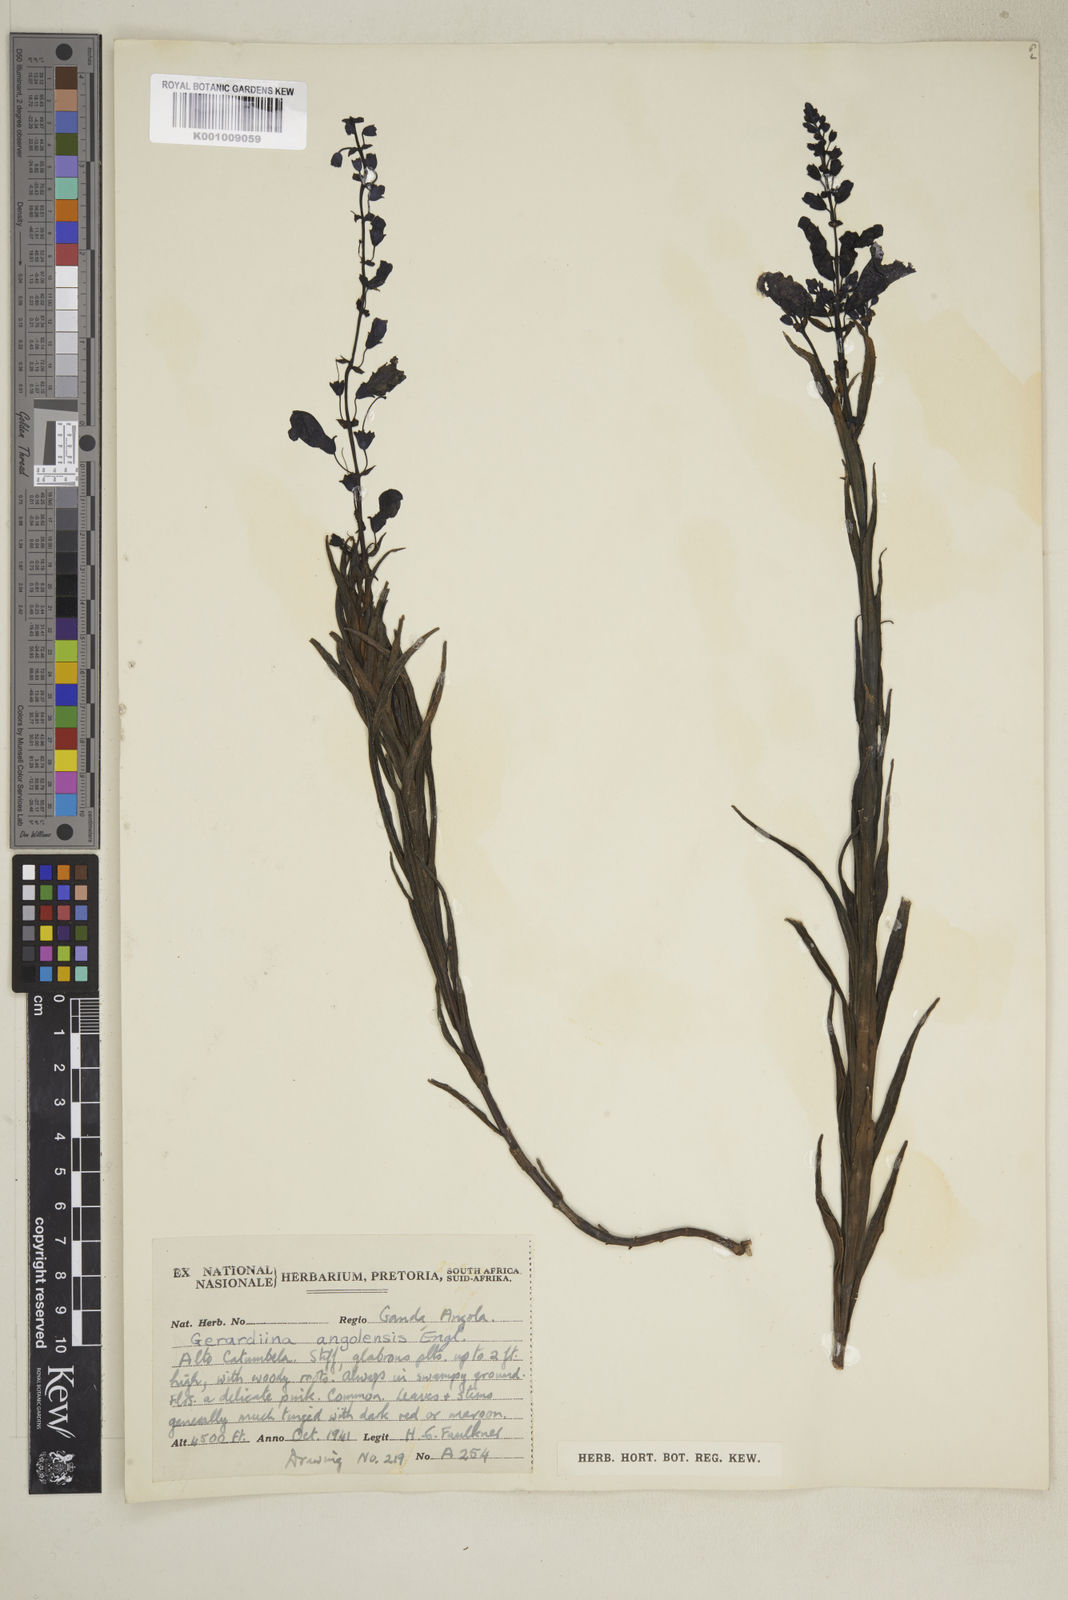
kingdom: Plantae
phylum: Tracheophyta
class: Magnoliopsida
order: Lamiales
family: Orobanchaceae
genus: Gerardiina
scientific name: Gerardiina angolensis
